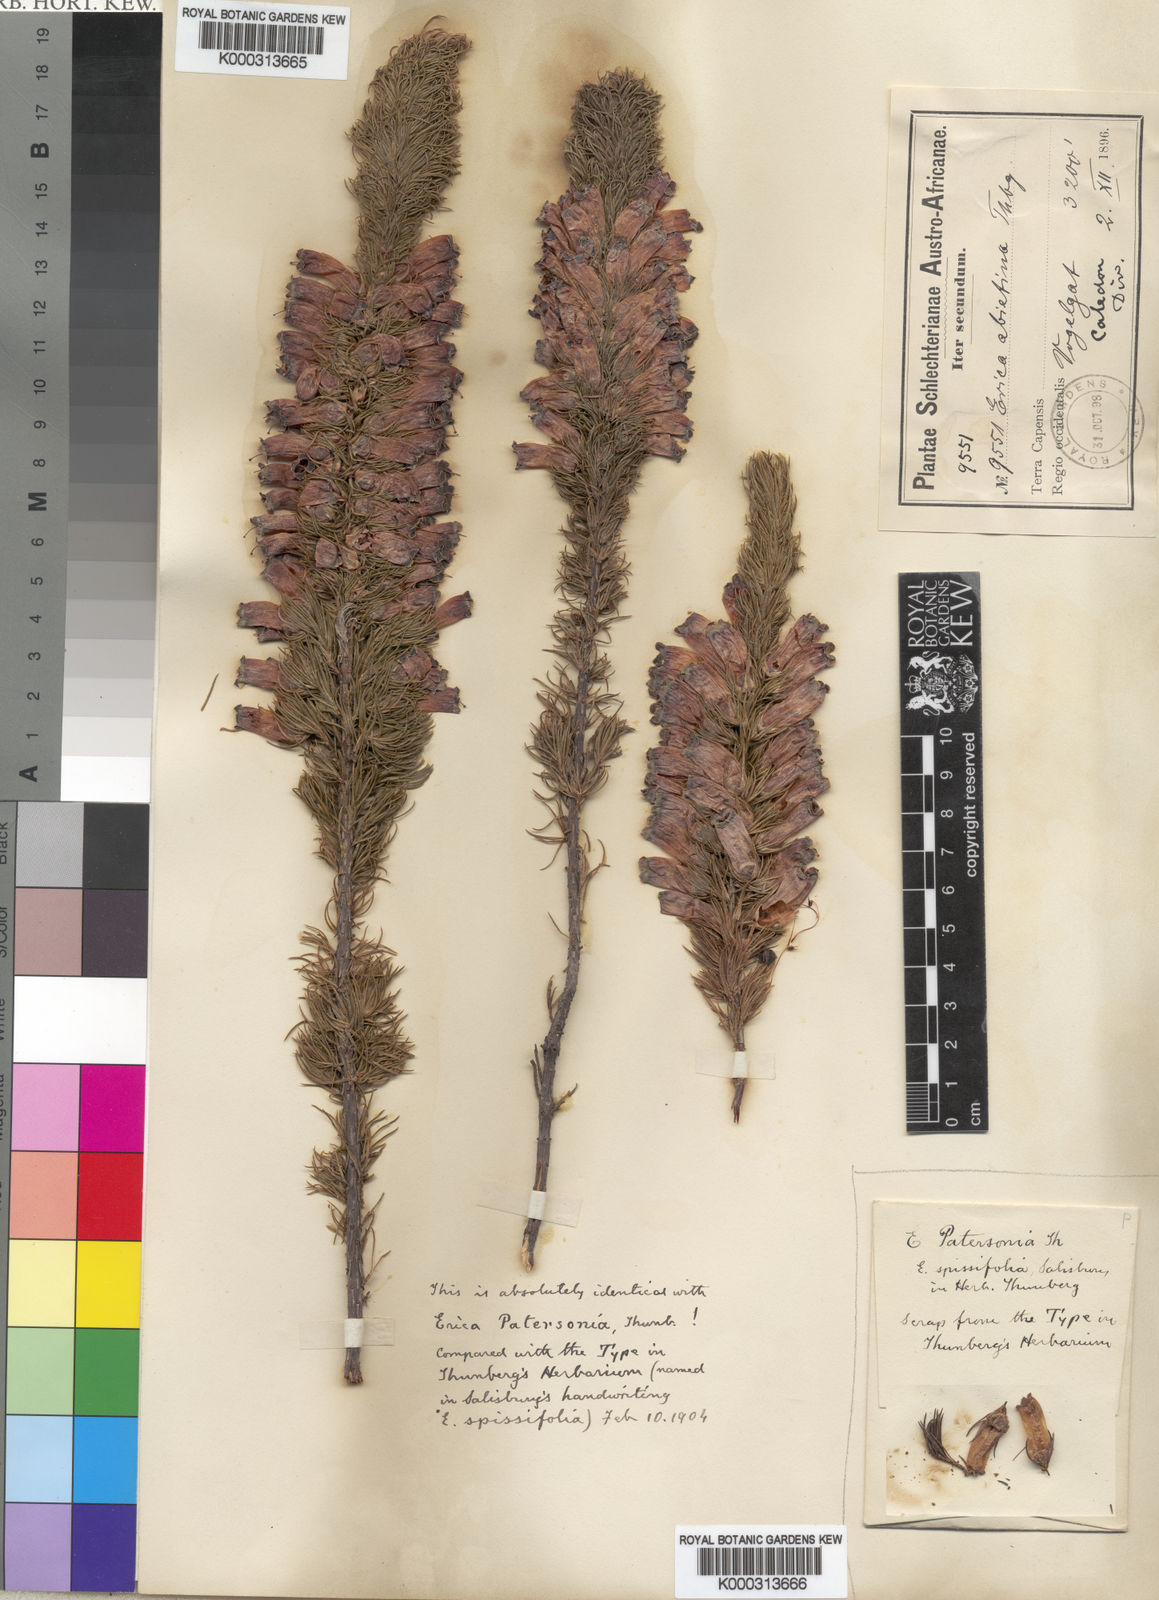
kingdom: Plantae
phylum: Tracheophyta
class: Magnoliopsida
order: Ericales
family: Ericaceae
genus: Erica
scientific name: Erica
